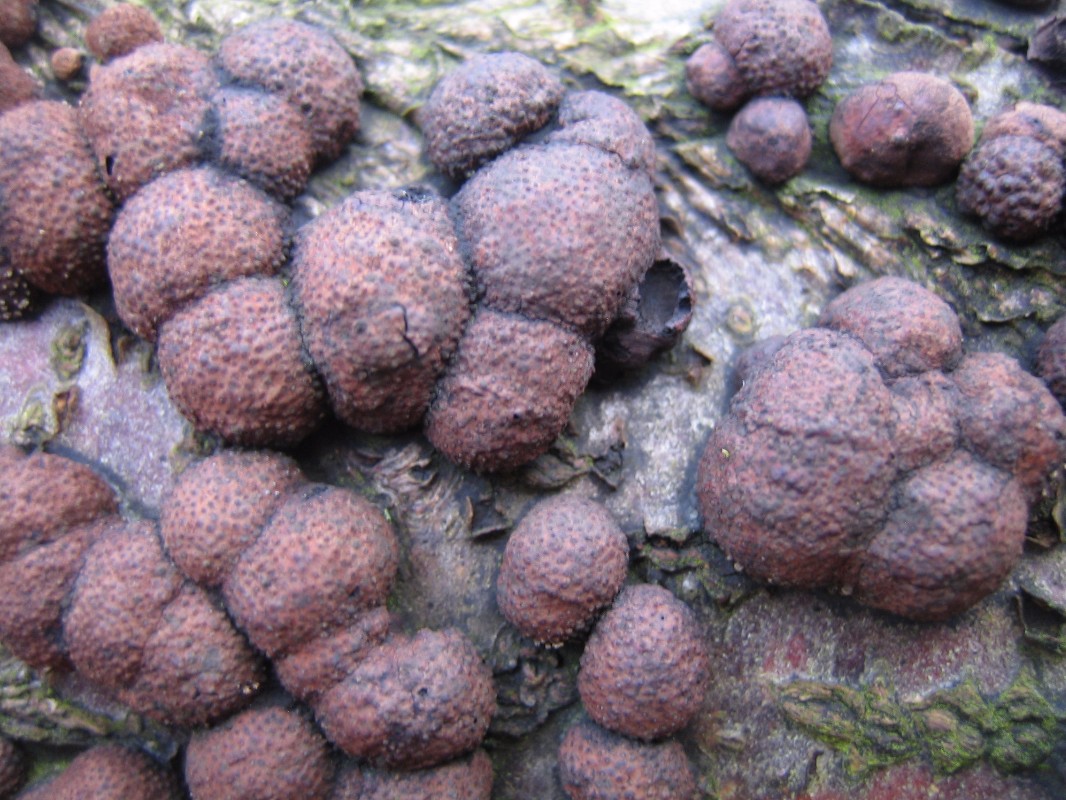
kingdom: Fungi
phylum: Ascomycota
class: Sordariomycetes
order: Xylariales
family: Hypoxylaceae
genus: Hypoxylon
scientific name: Hypoxylon fragiforme
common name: kuljordbær
